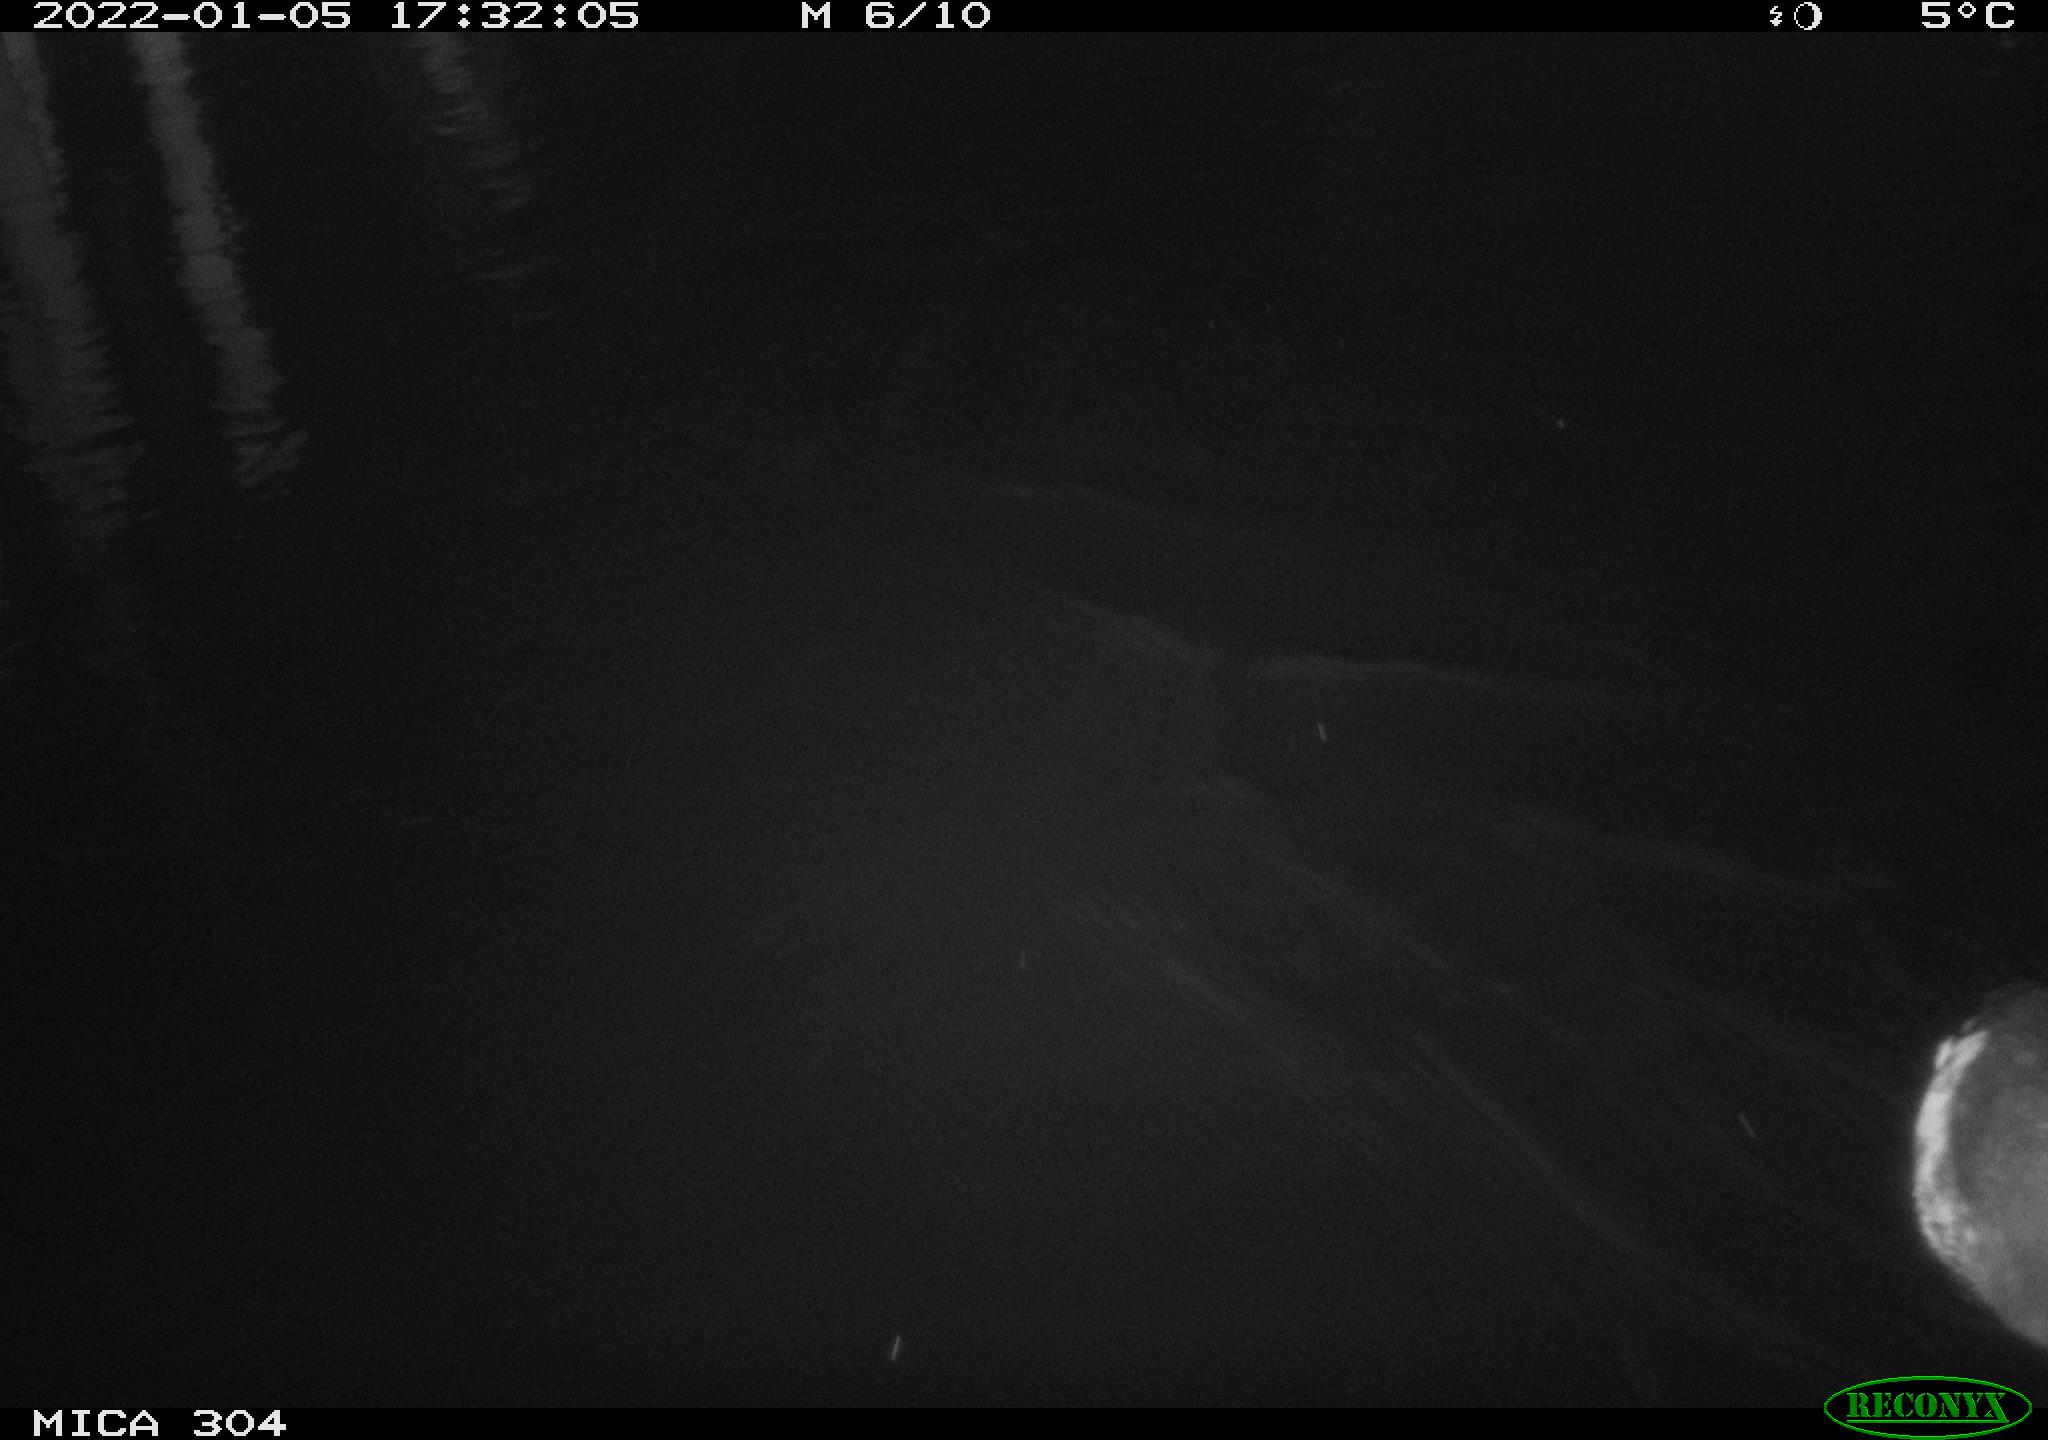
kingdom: Animalia
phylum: Chordata
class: Aves
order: Anseriformes
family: Anatidae
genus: Anas
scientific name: Anas
